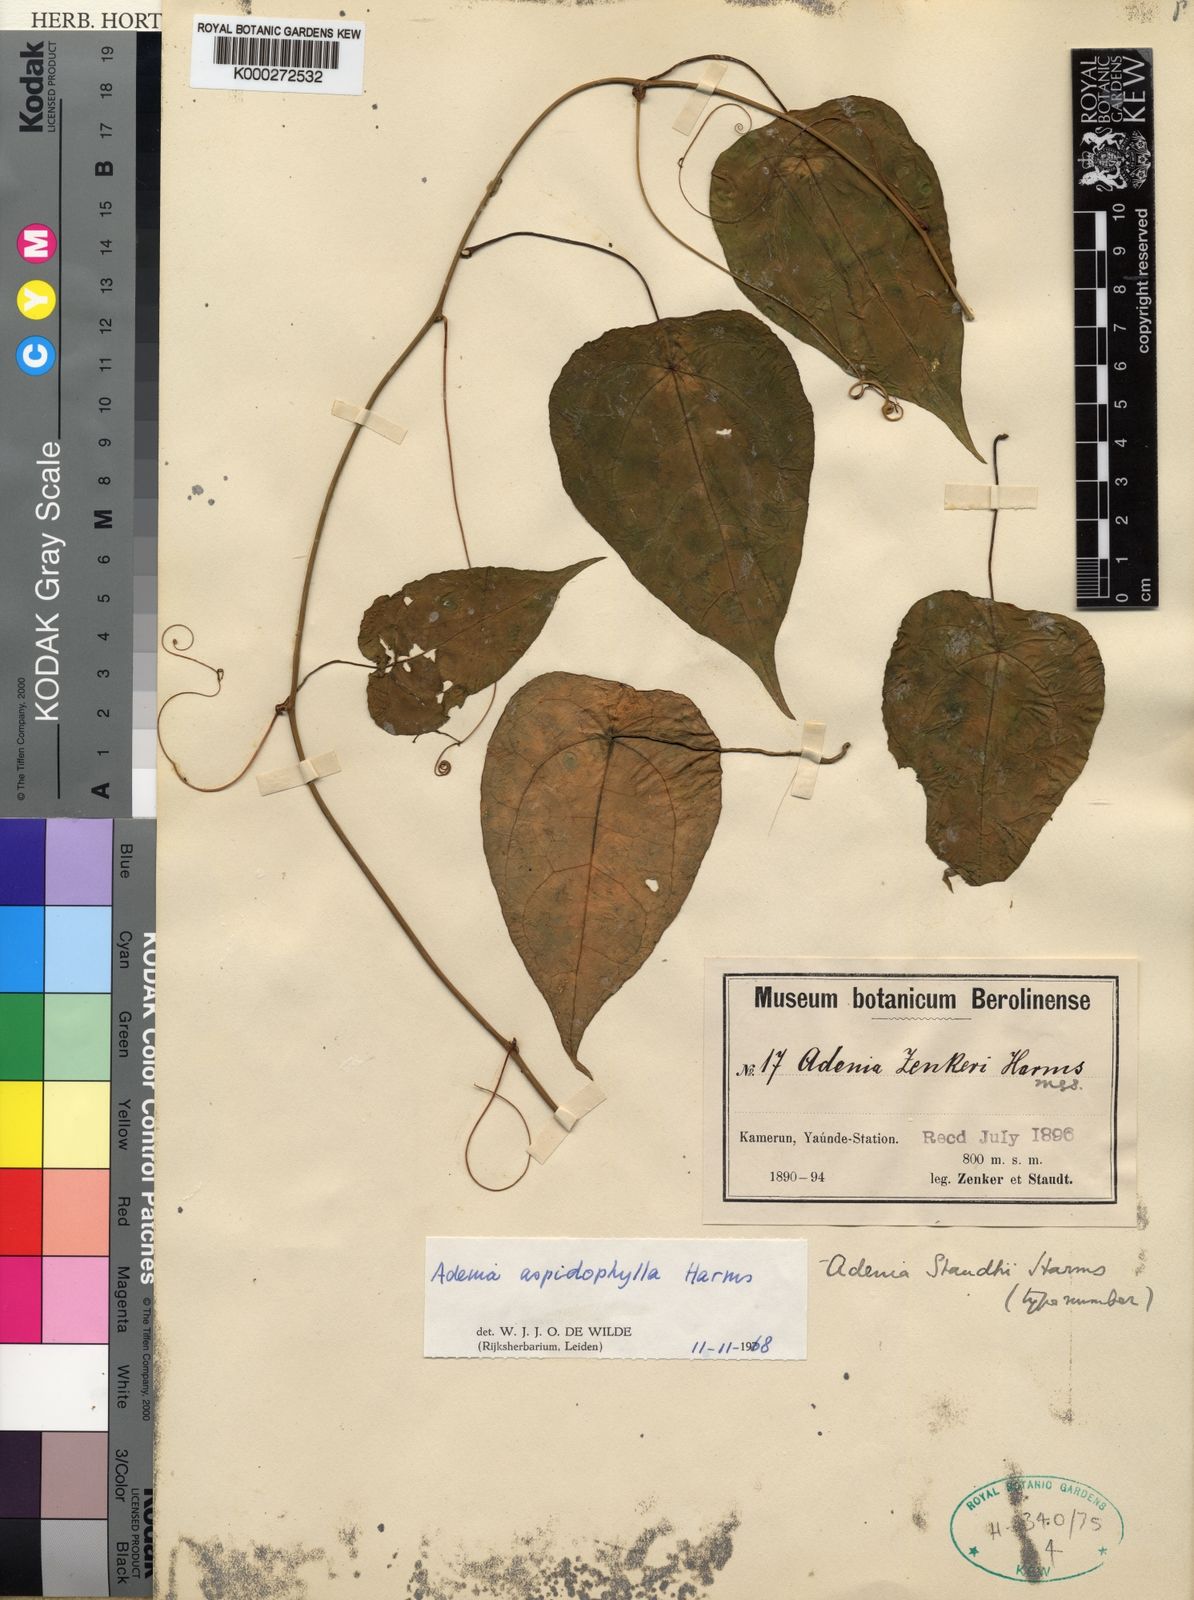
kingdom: Plantae
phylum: Tracheophyta
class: Magnoliopsida
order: Malpighiales
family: Passifloraceae
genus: Adenia
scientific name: Adenia staudtii
